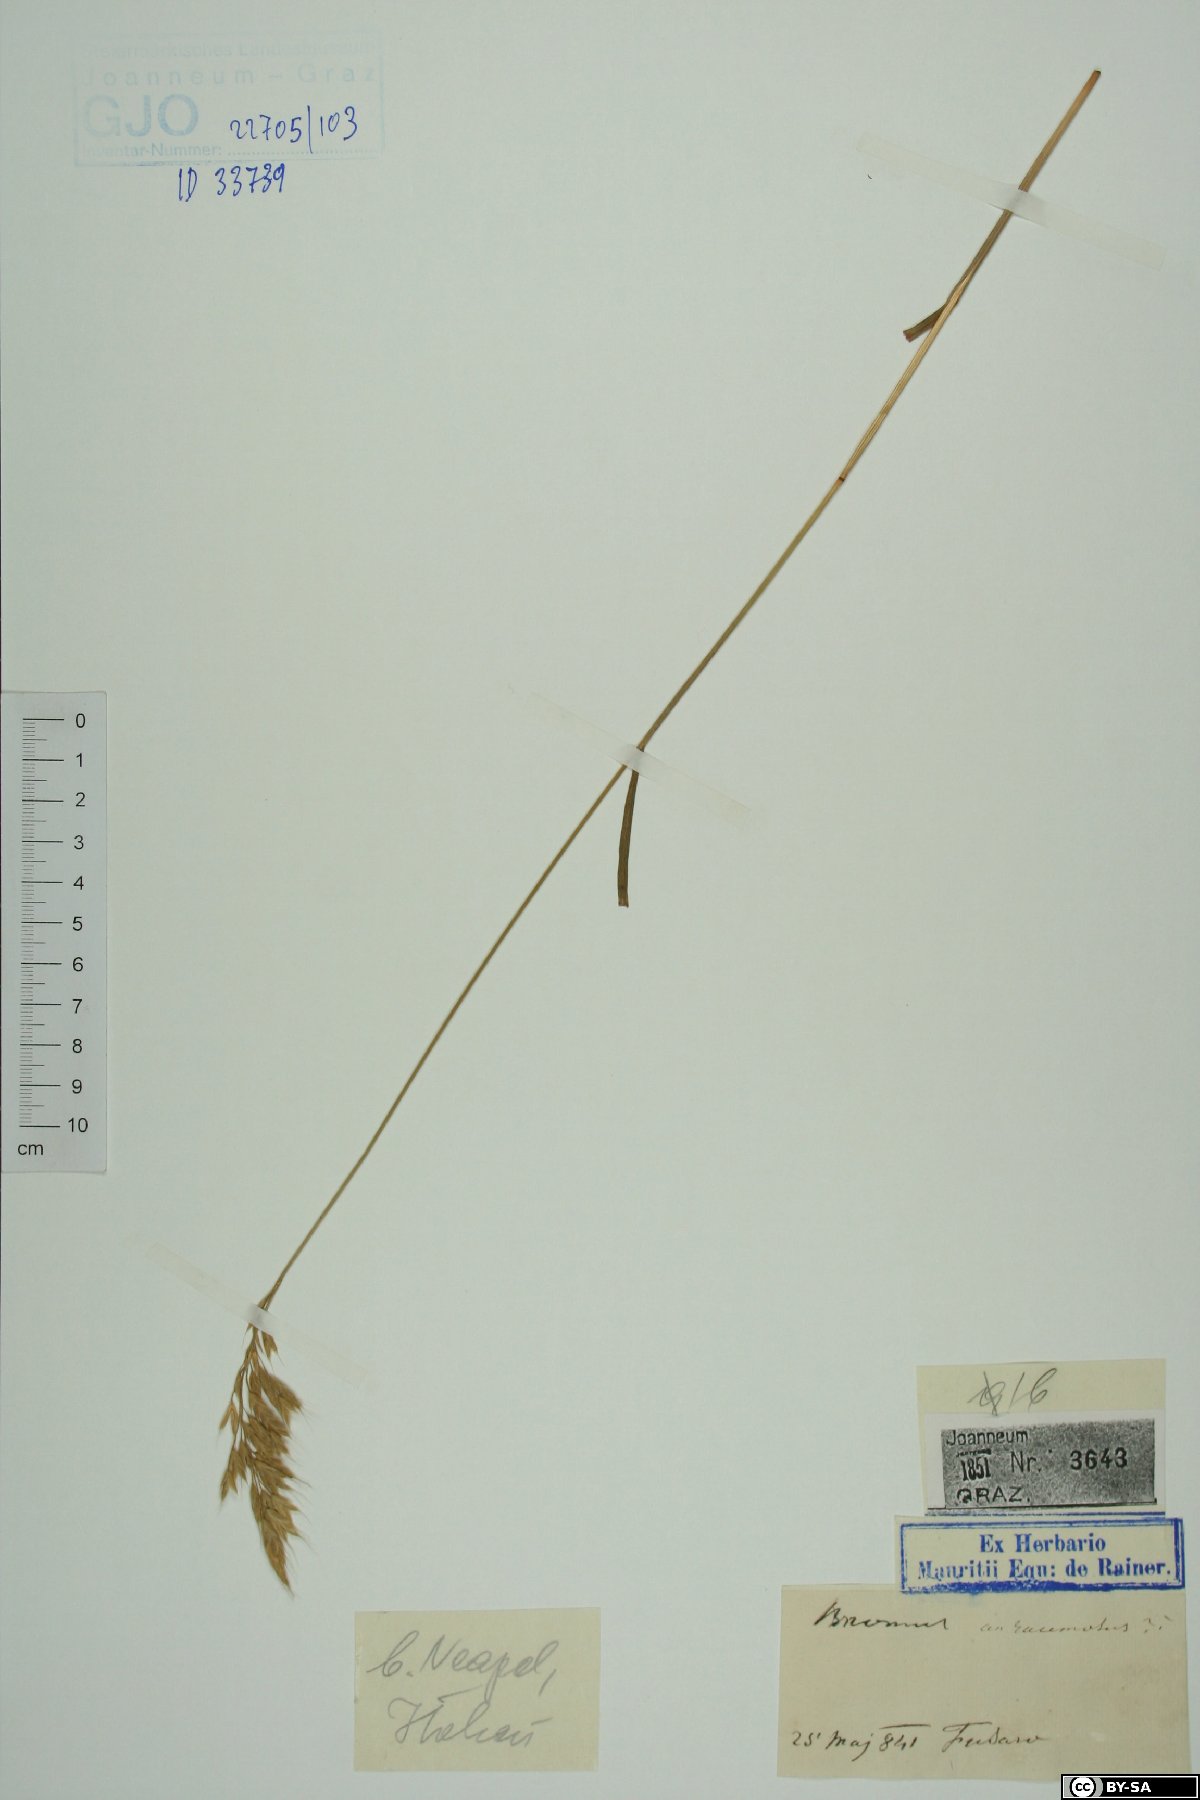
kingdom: Plantae
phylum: Tracheophyta
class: Liliopsida
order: Poales
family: Poaceae
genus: Bromus
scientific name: Bromus racemosus
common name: Bald brome
